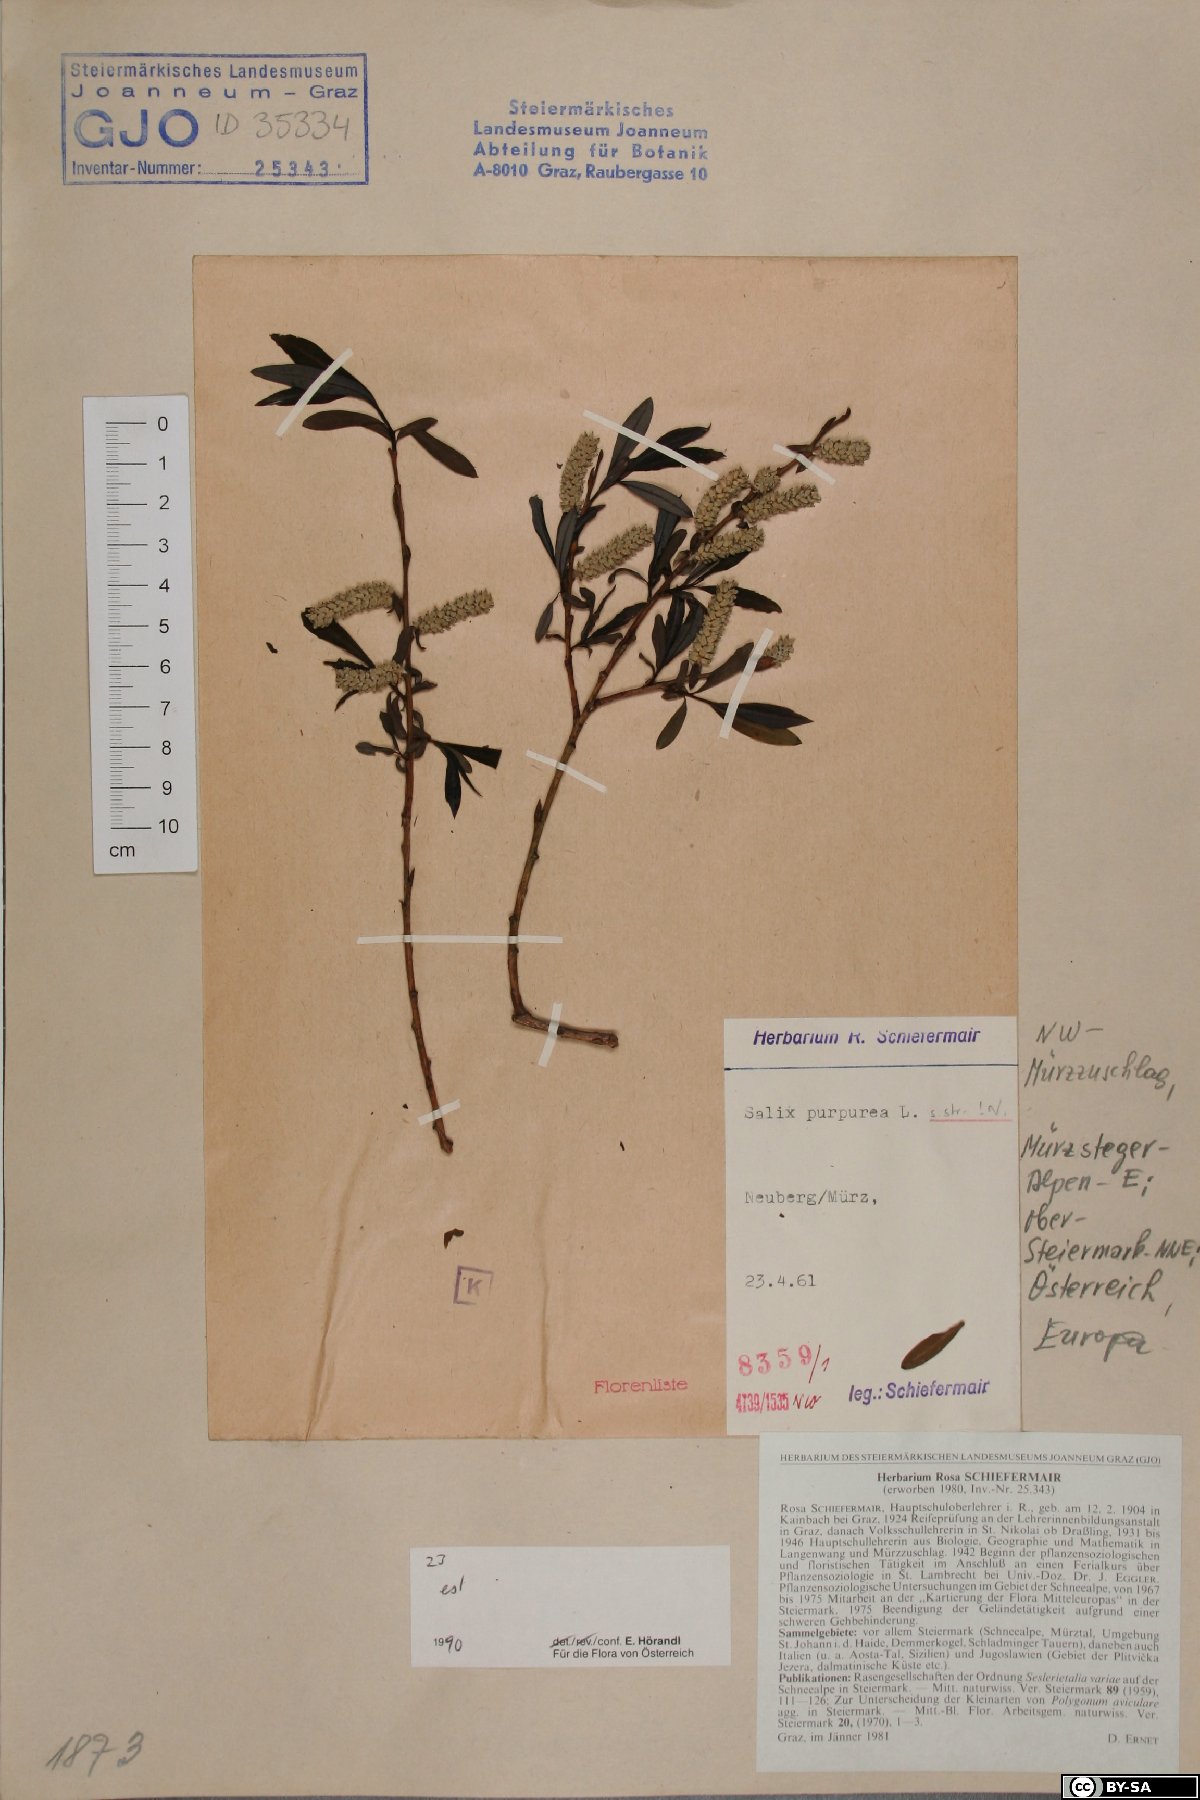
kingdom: Plantae
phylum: Tracheophyta
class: Magnoliopsida
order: Malpighiales
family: Salicaceae
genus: Salix
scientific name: Salix purpurea
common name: Purple willow
